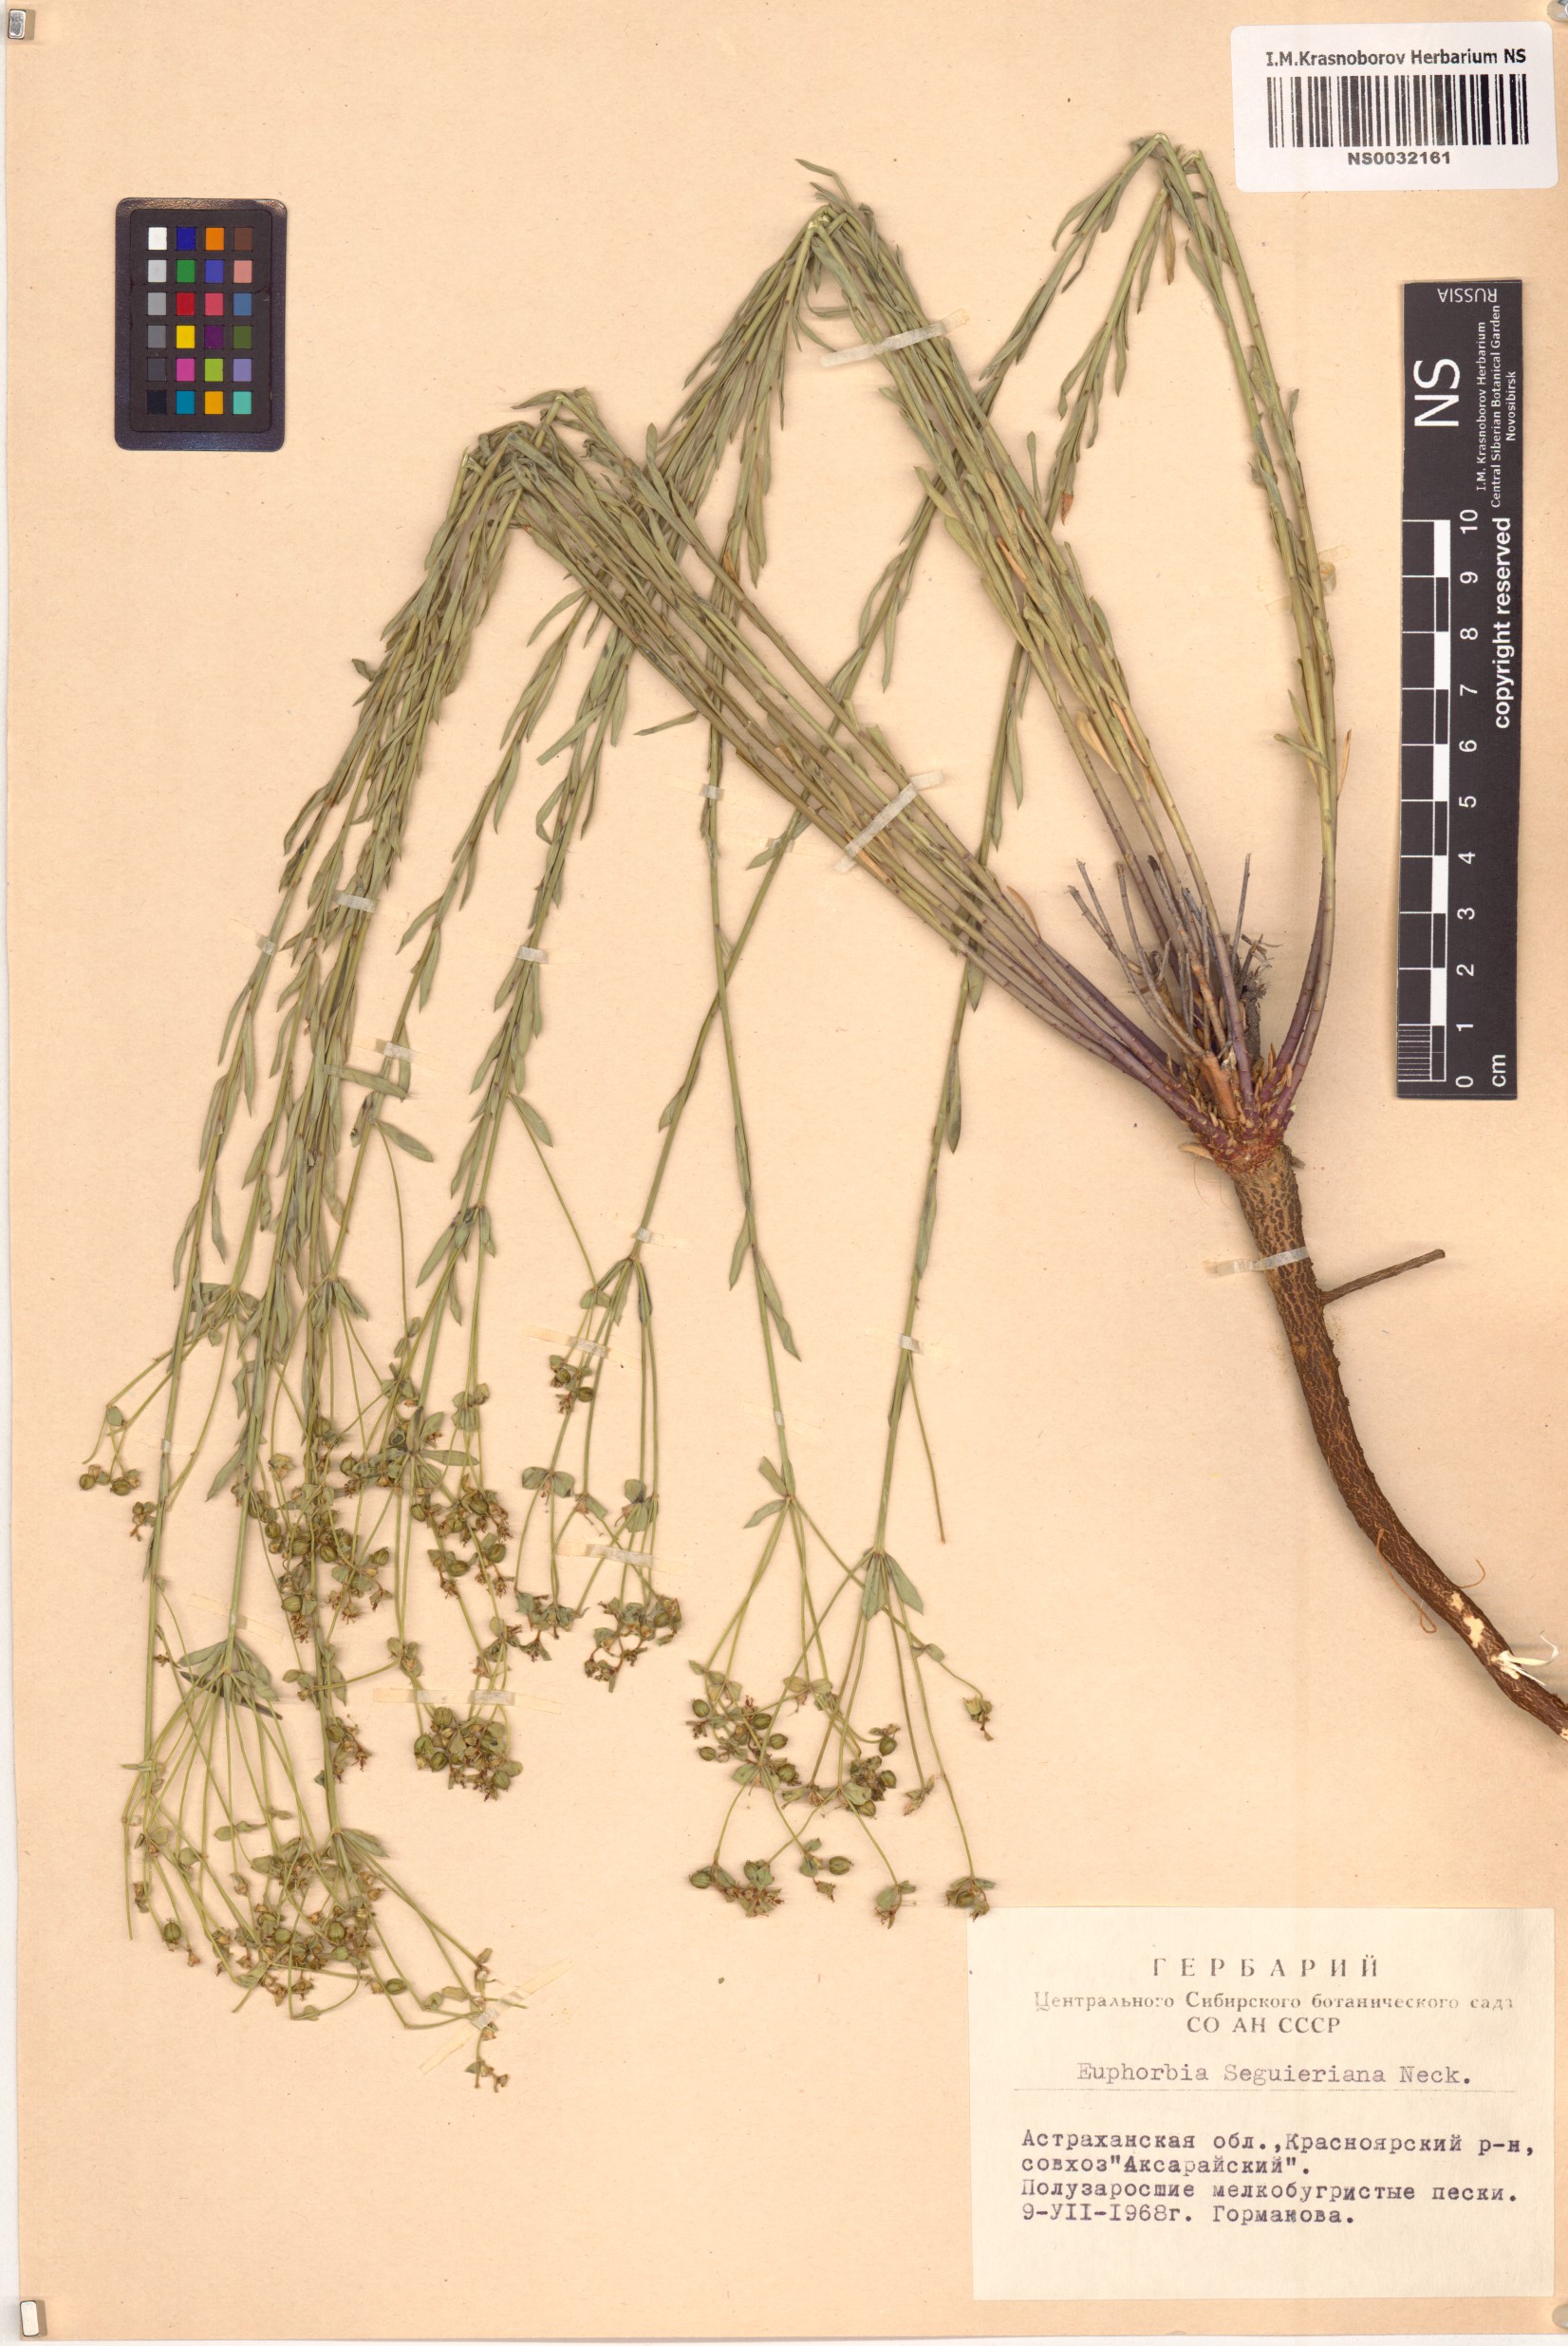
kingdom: Plantae
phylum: Tracheophyta
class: Magnoliopsida
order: Malpighiales
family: Euphorbiaceae
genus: Euphorbia
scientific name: Euphorbia seguieriana
